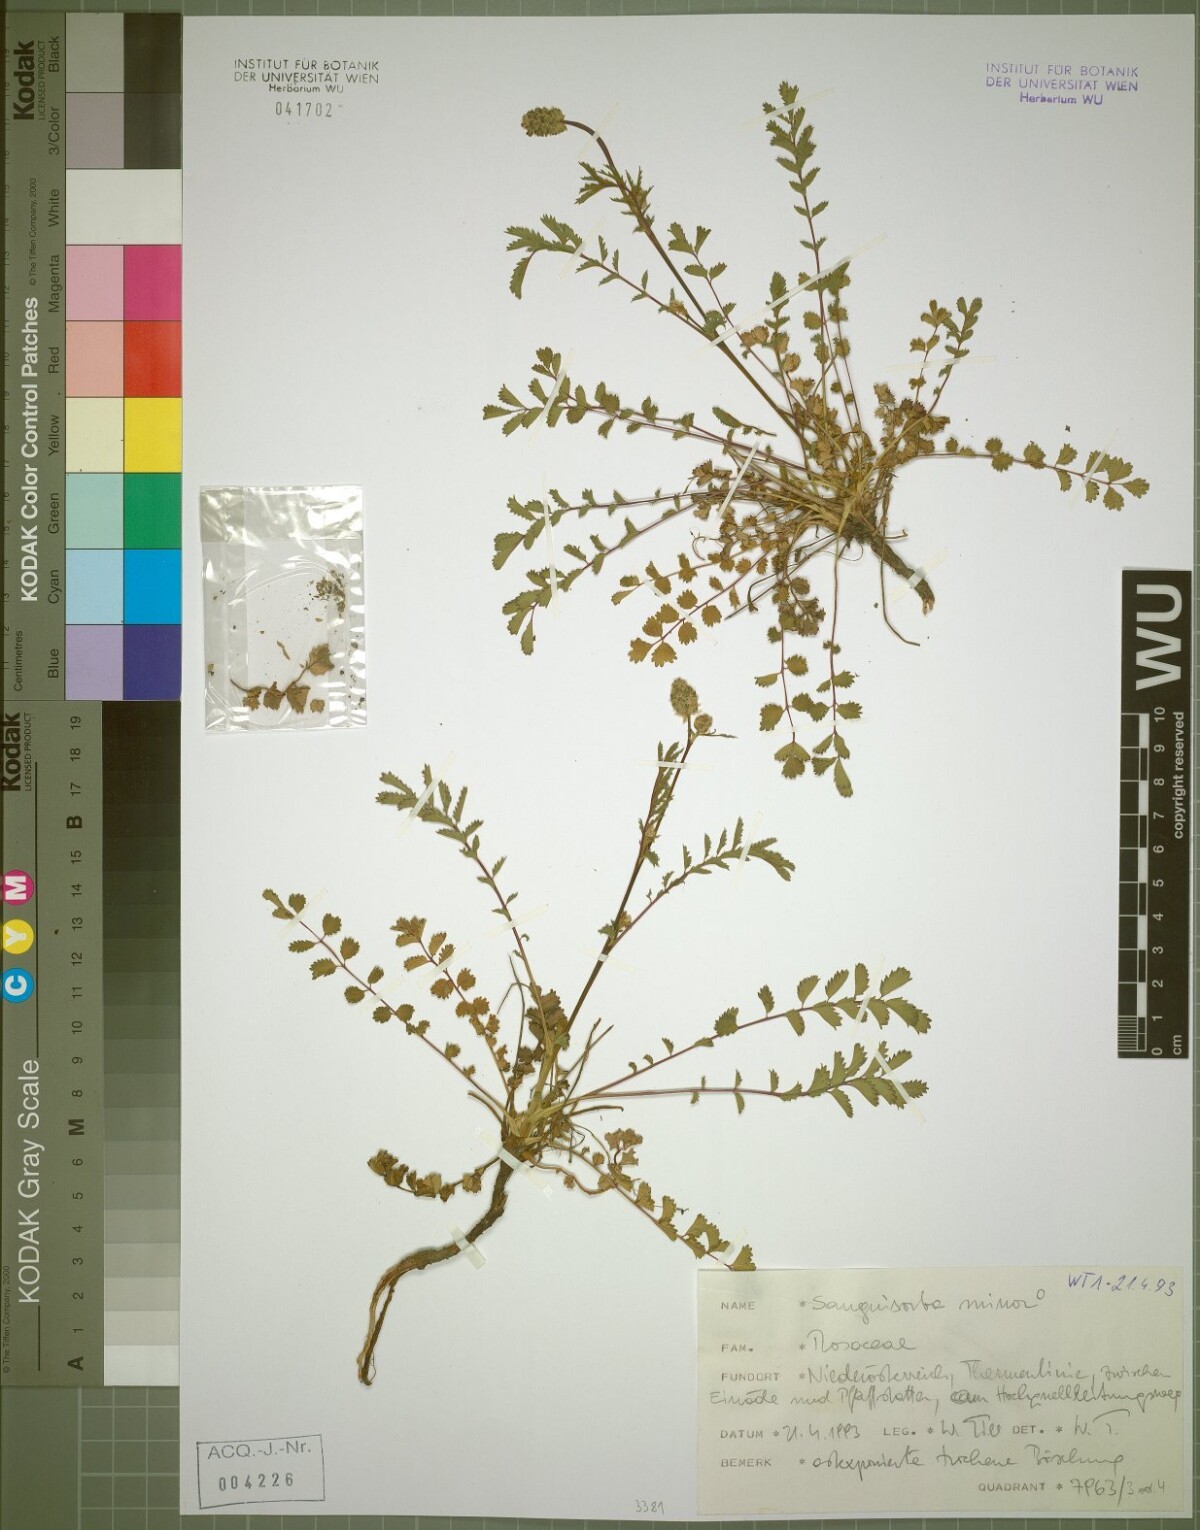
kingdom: Plantae
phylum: Tracheophyta
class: Magnoliopsida
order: Rosales
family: Rosaceae
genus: Poterium
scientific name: Poterium sanguisorba
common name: Salad burnet
